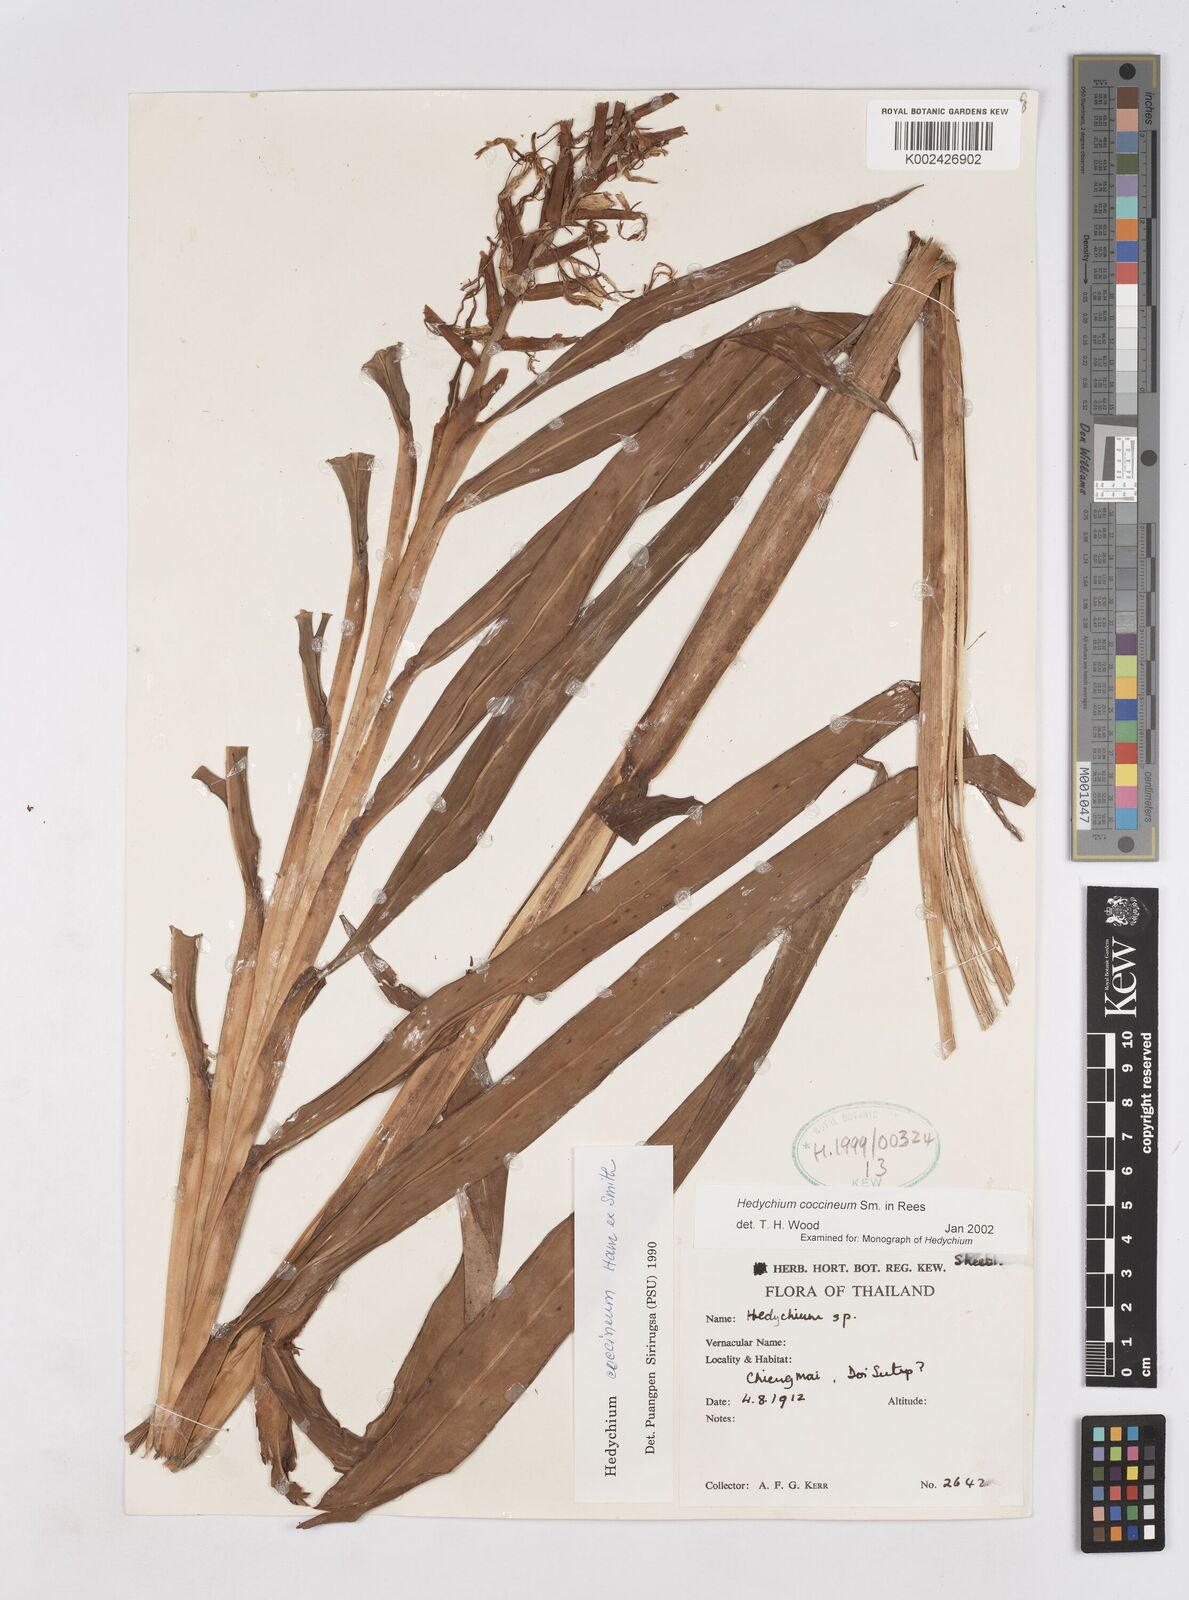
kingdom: Plantae
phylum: Tracheophyta
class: Liliopsida
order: Zingiberales
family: Zingiberaceae
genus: Hedychium
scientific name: Hedychium coccineum
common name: Red ginger-lily
